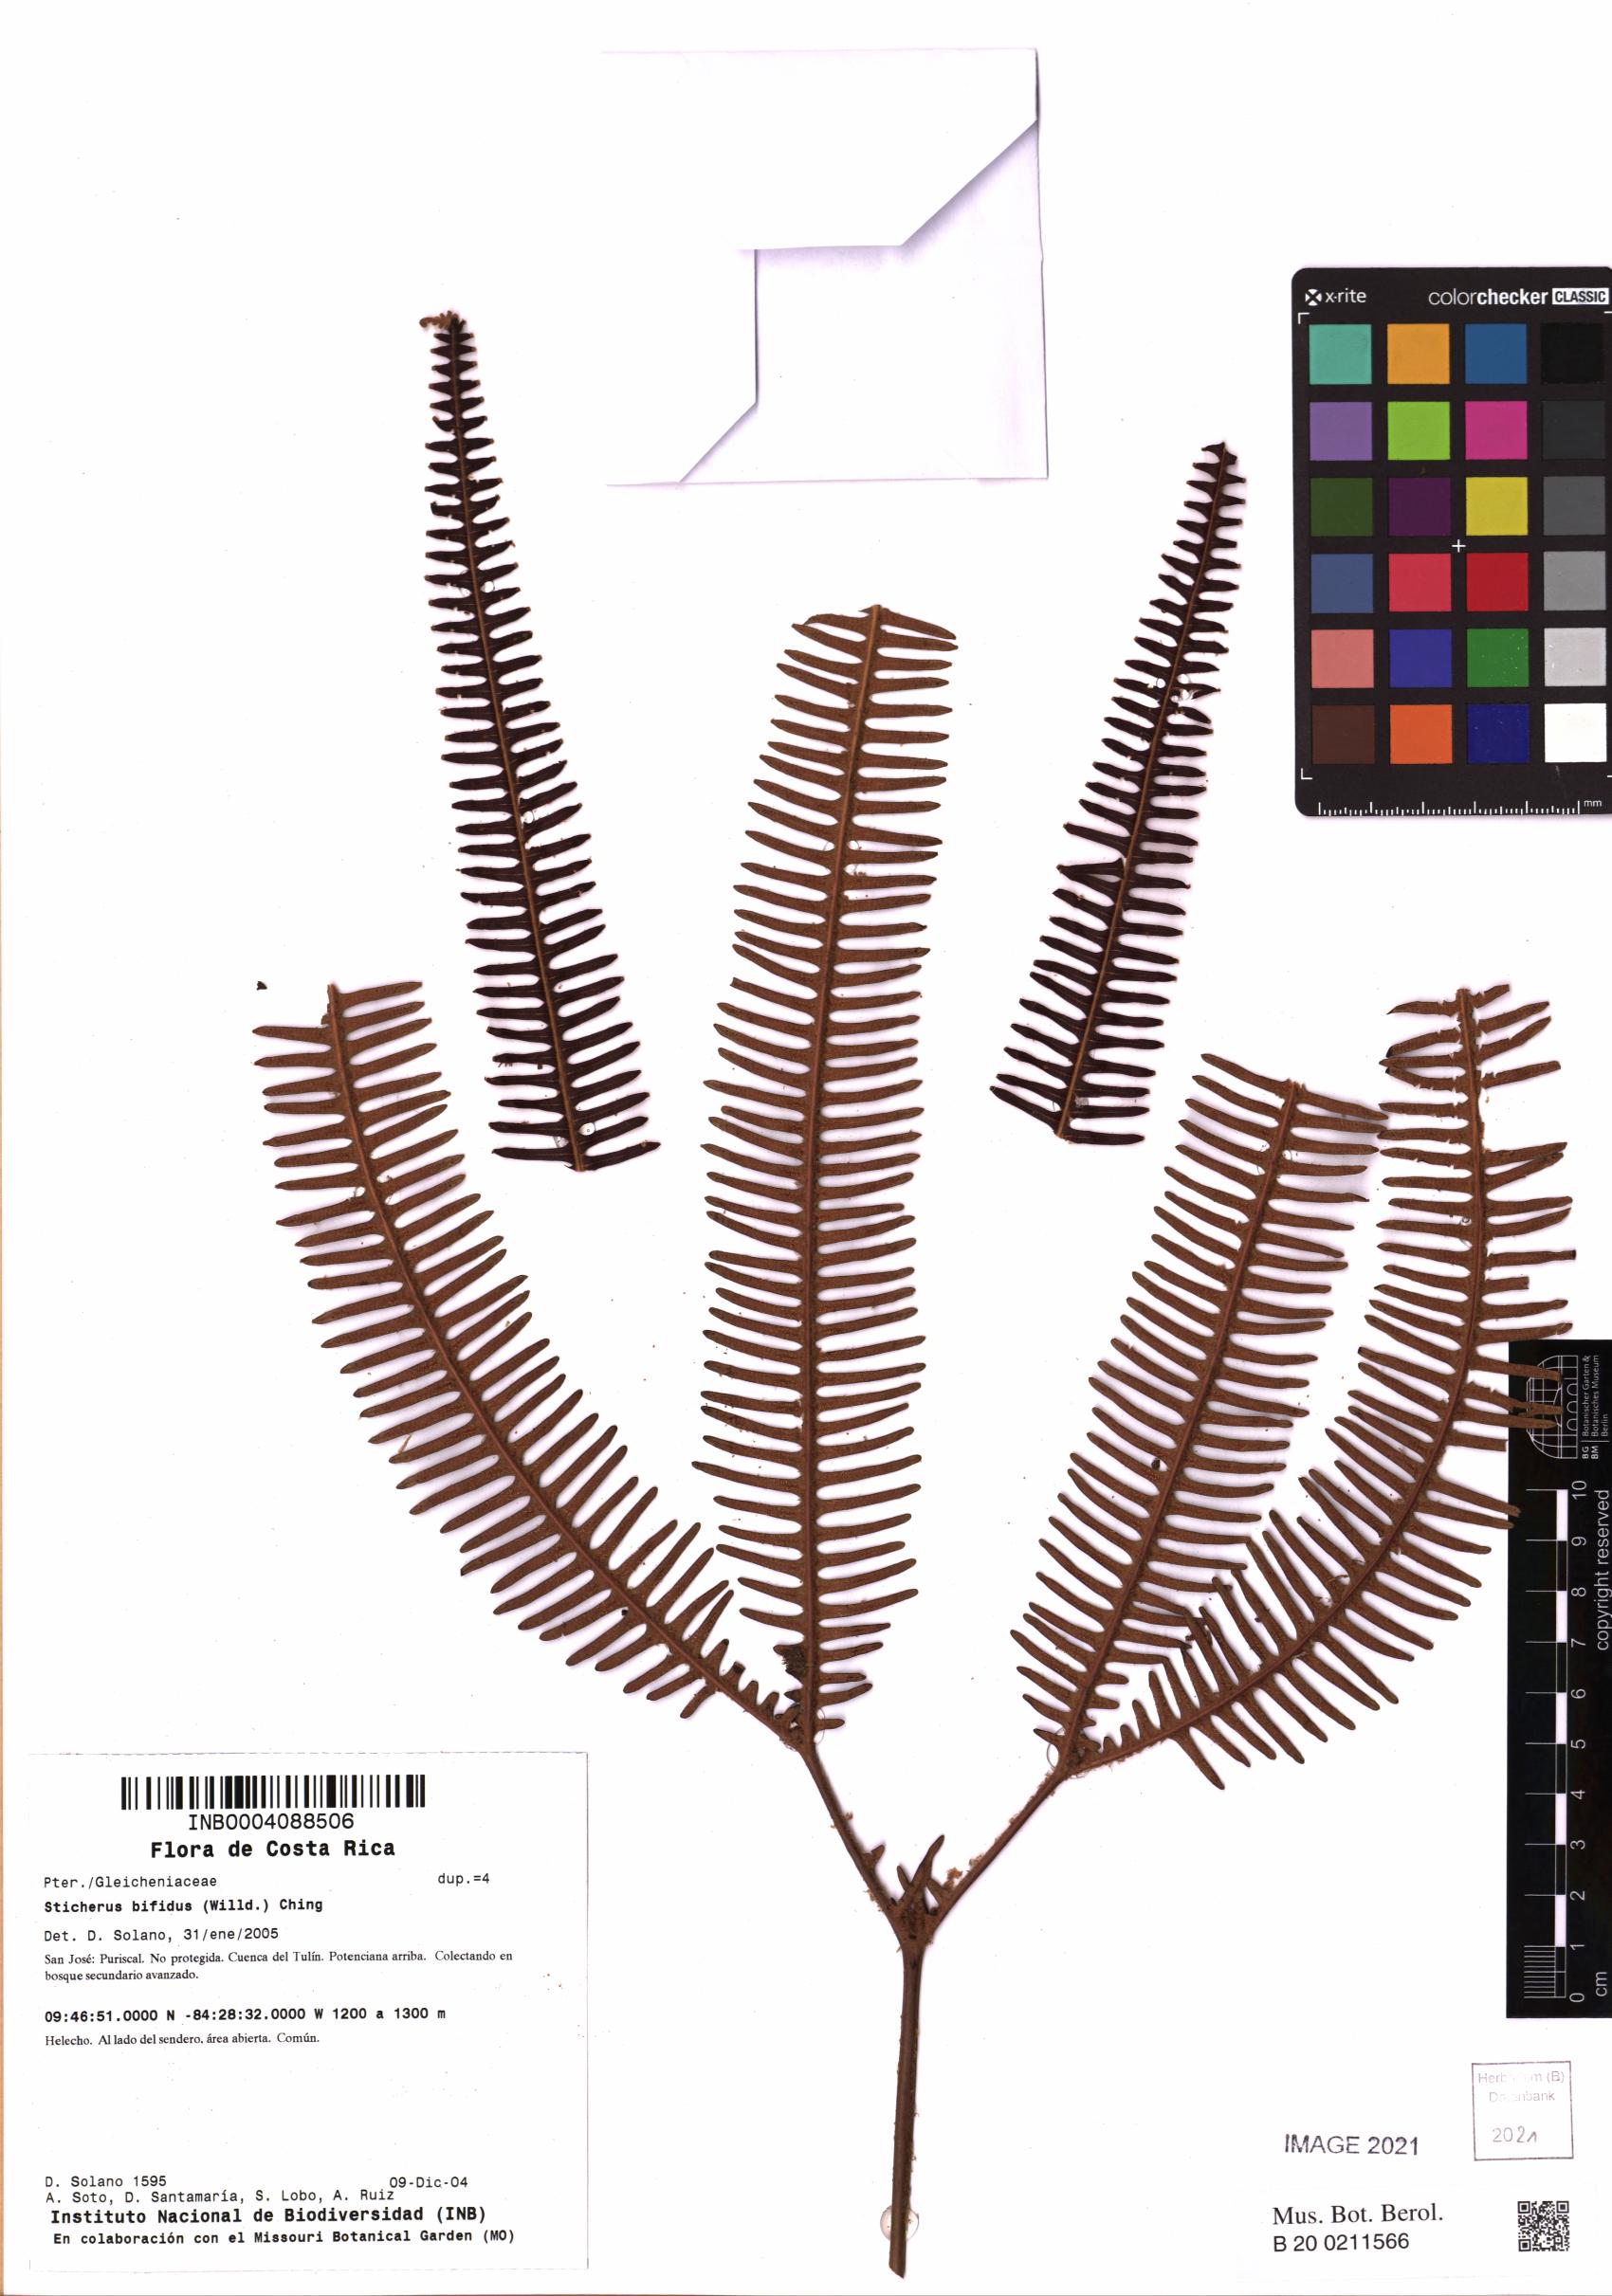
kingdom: Plantae
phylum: Tracheophyta
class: Polypodiopsida
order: Gleicheniales
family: Gleicheniaceae
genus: Sticherus
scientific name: Sticherus bifidus
